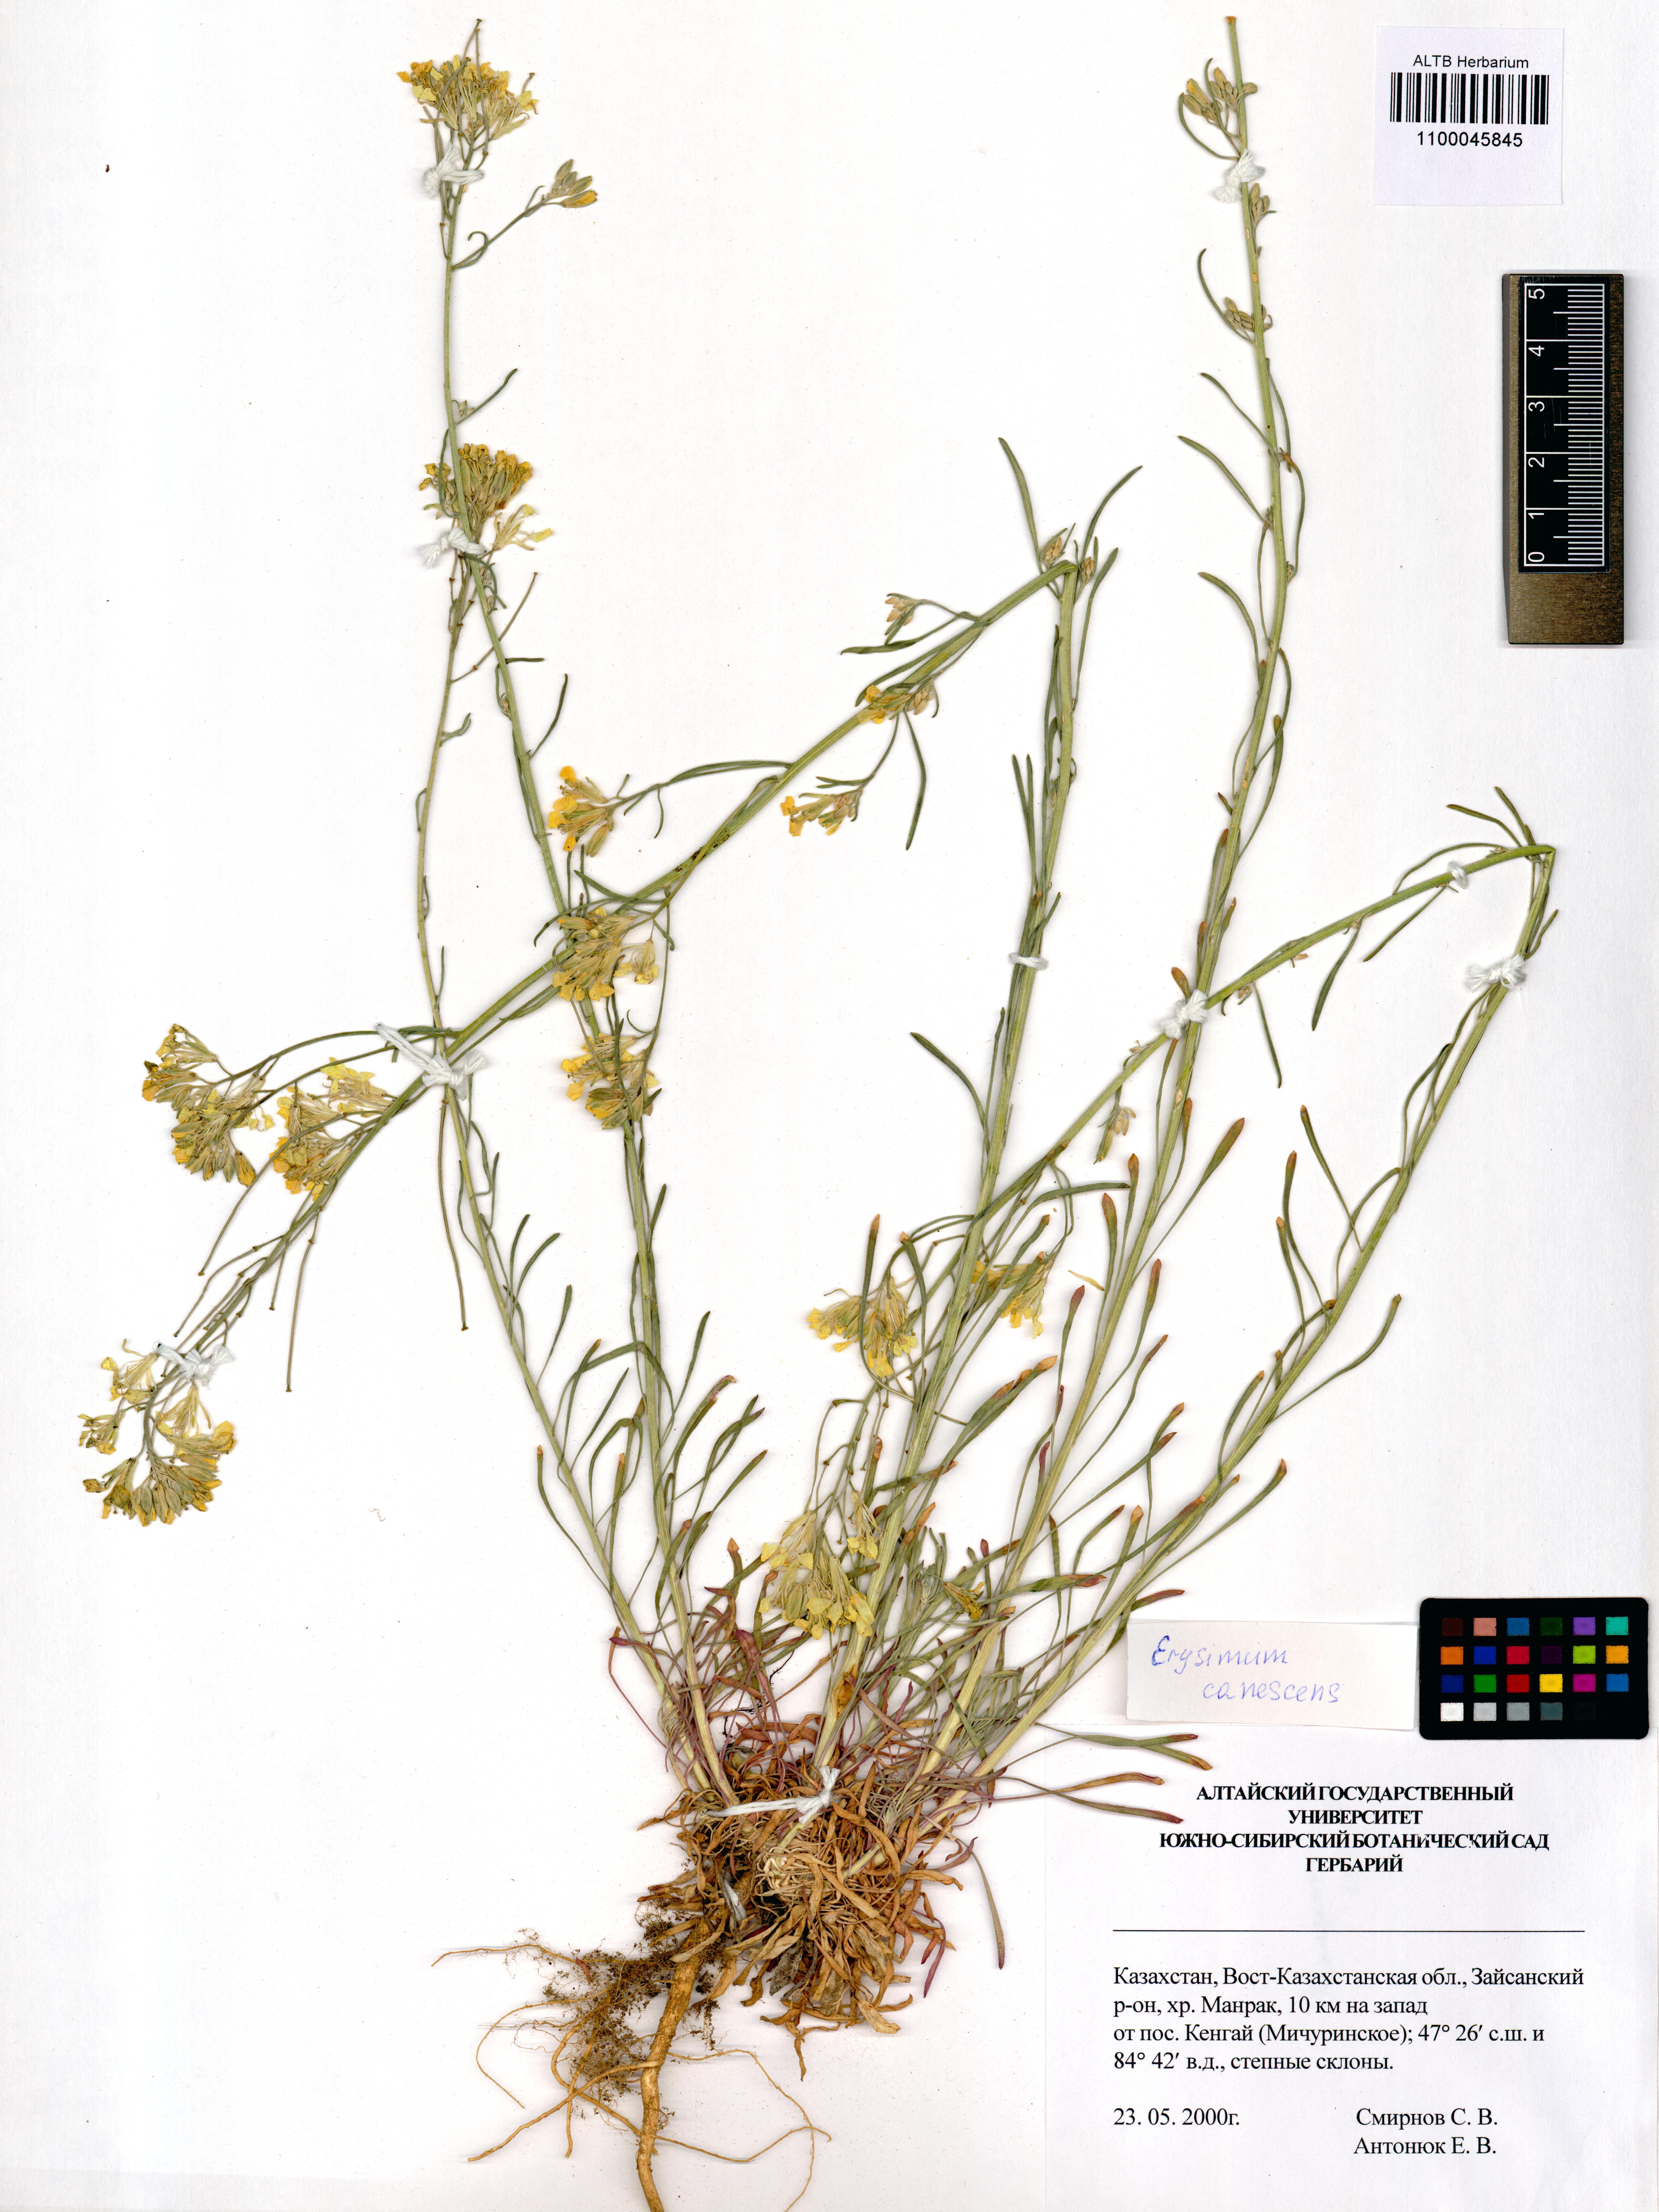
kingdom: Plantae
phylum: Tracheophyta
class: Magnoliopsida
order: Brassicales
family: Brassicaceae
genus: Erysimum
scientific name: Erysimum canescens
